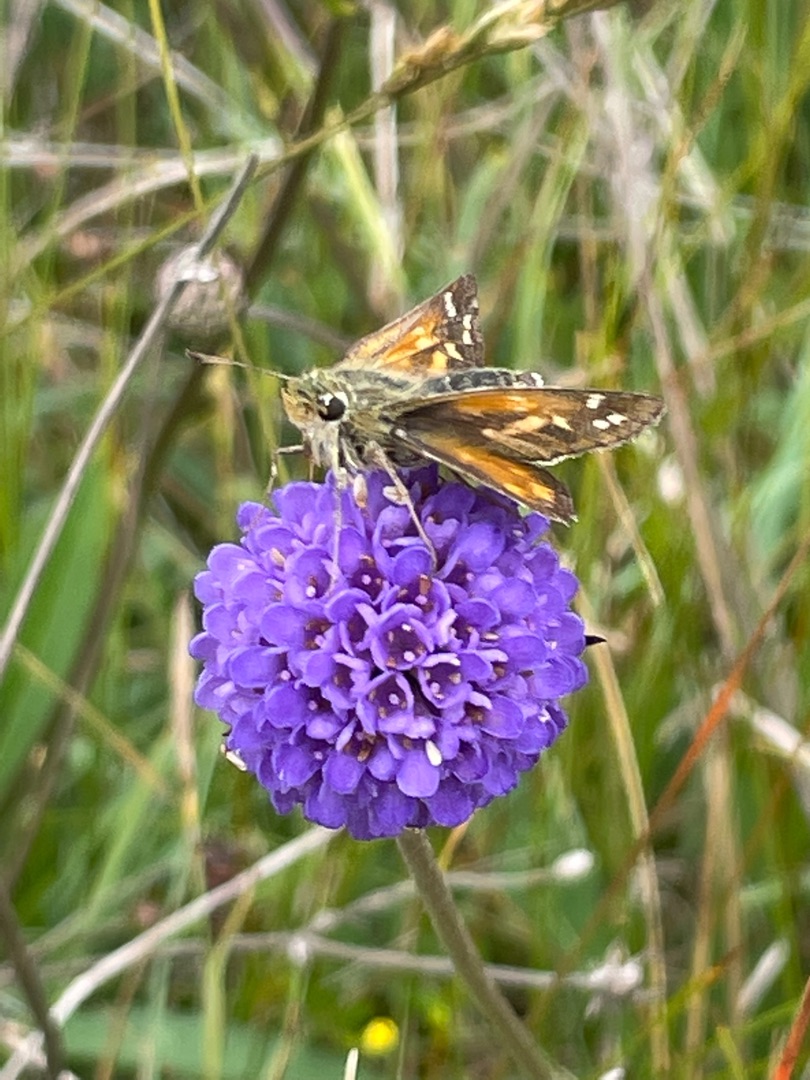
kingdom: Animalia
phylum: Arthropoda
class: Insecta
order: Lepidoptera
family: Hesperiidae
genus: Hesperia
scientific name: Hesperia comma
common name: Kommabredpande
